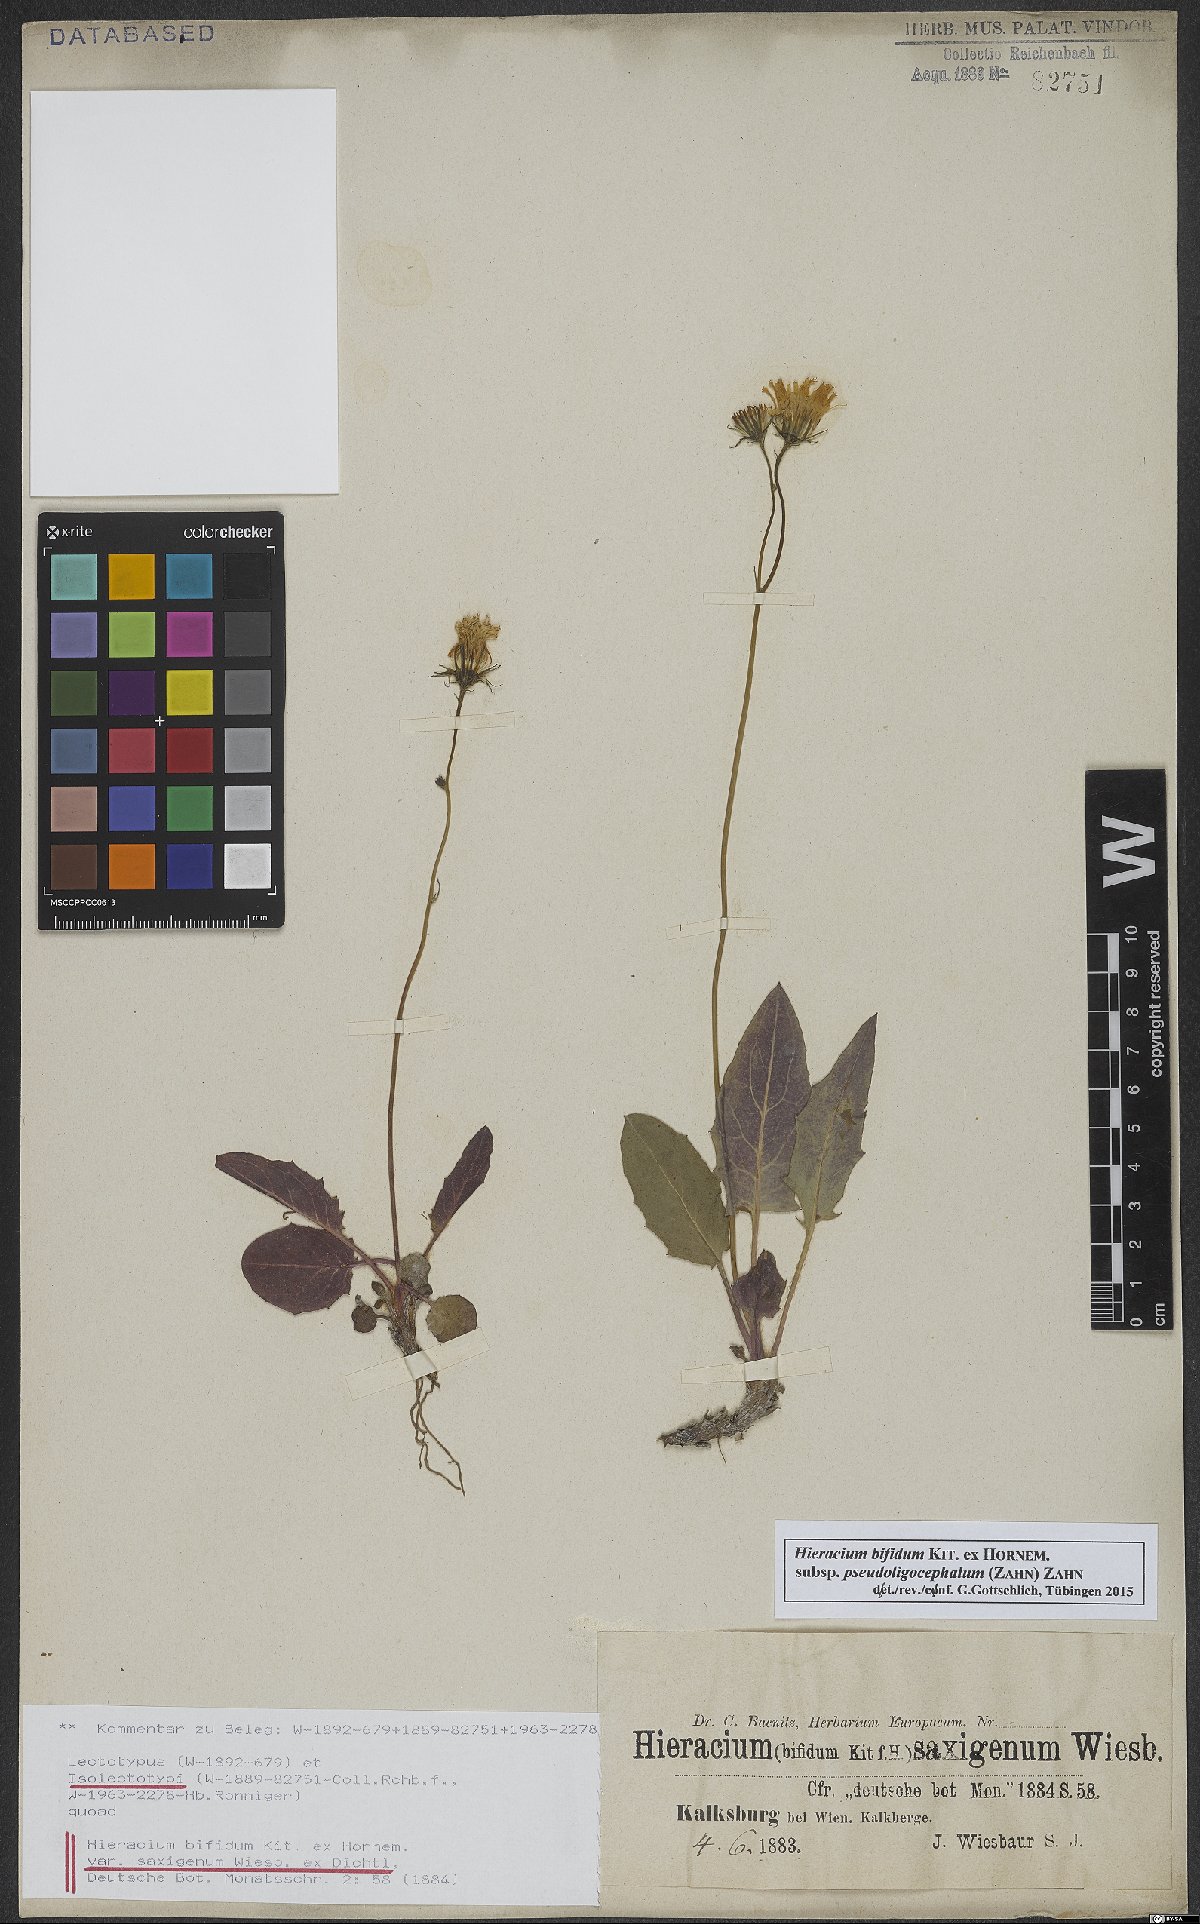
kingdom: Plantae
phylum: Tracheophyta
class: Magnoliopsida
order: Asterales
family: Asteraceae
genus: Hieracium
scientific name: Hieracium bifidum
